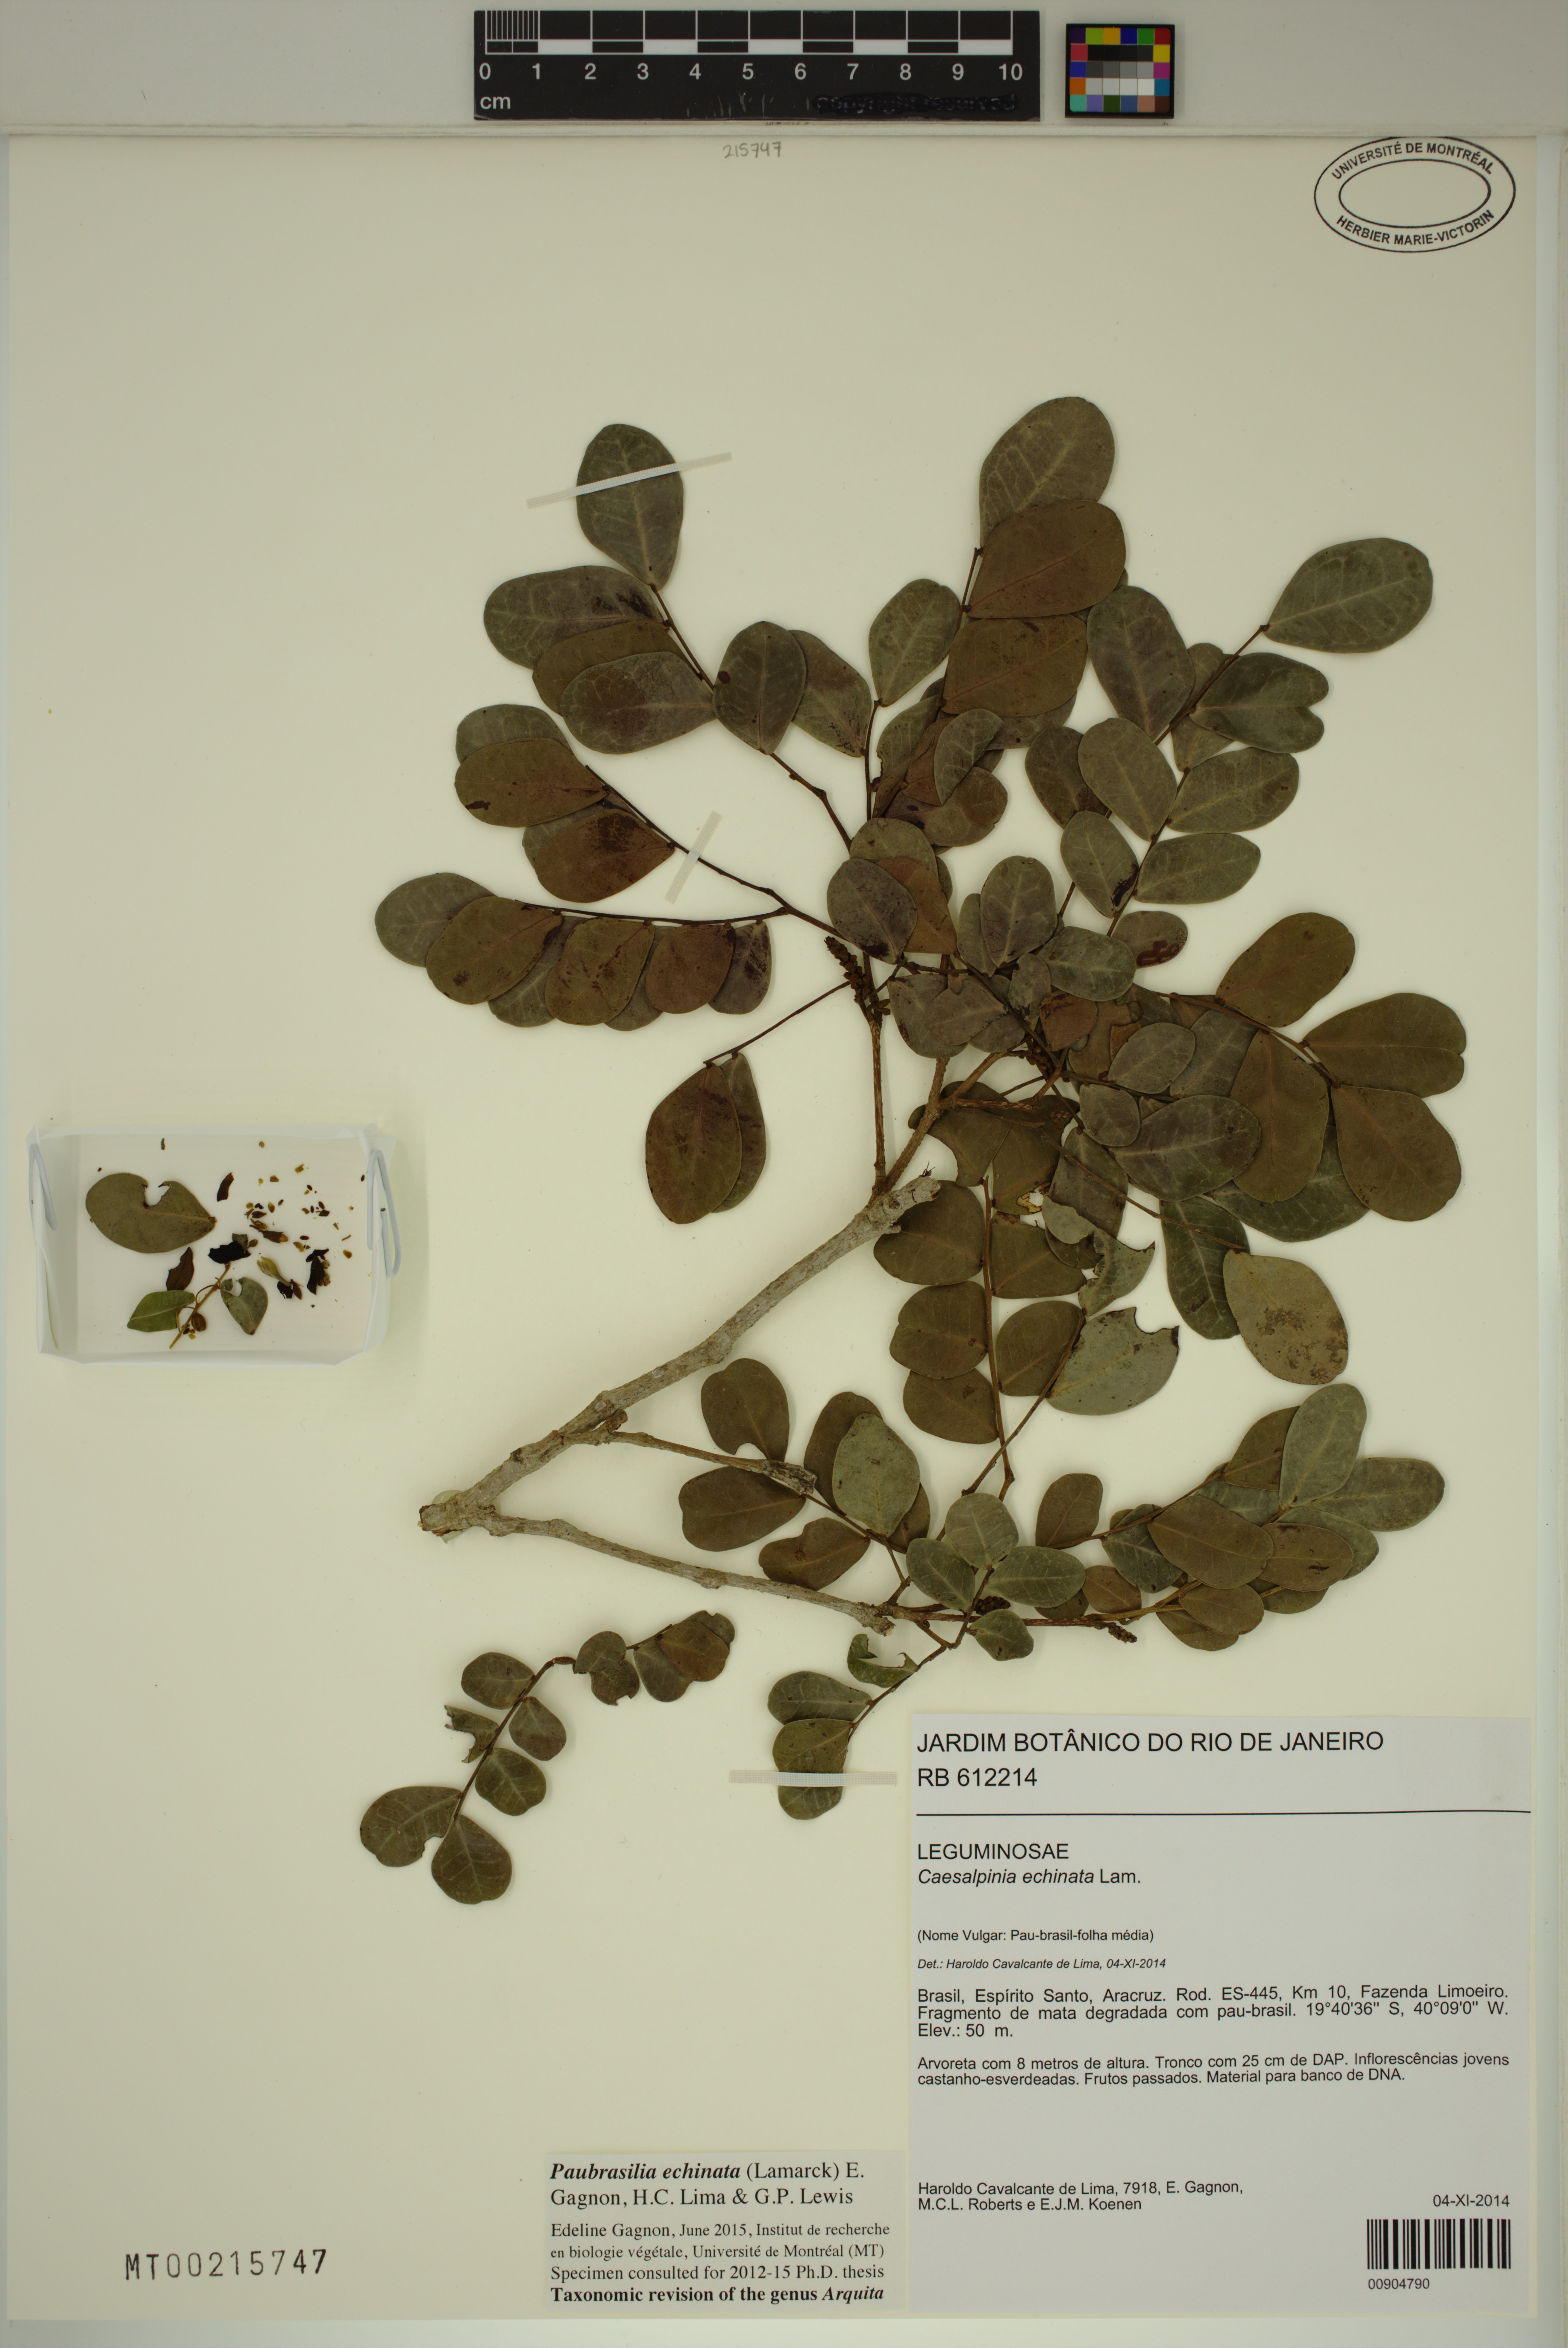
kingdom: Plantae
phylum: Tracheophyta
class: Magnoliopsida
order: Fabales
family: Fabaceae
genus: Paubrasilia
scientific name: Paubrasilia echinata
